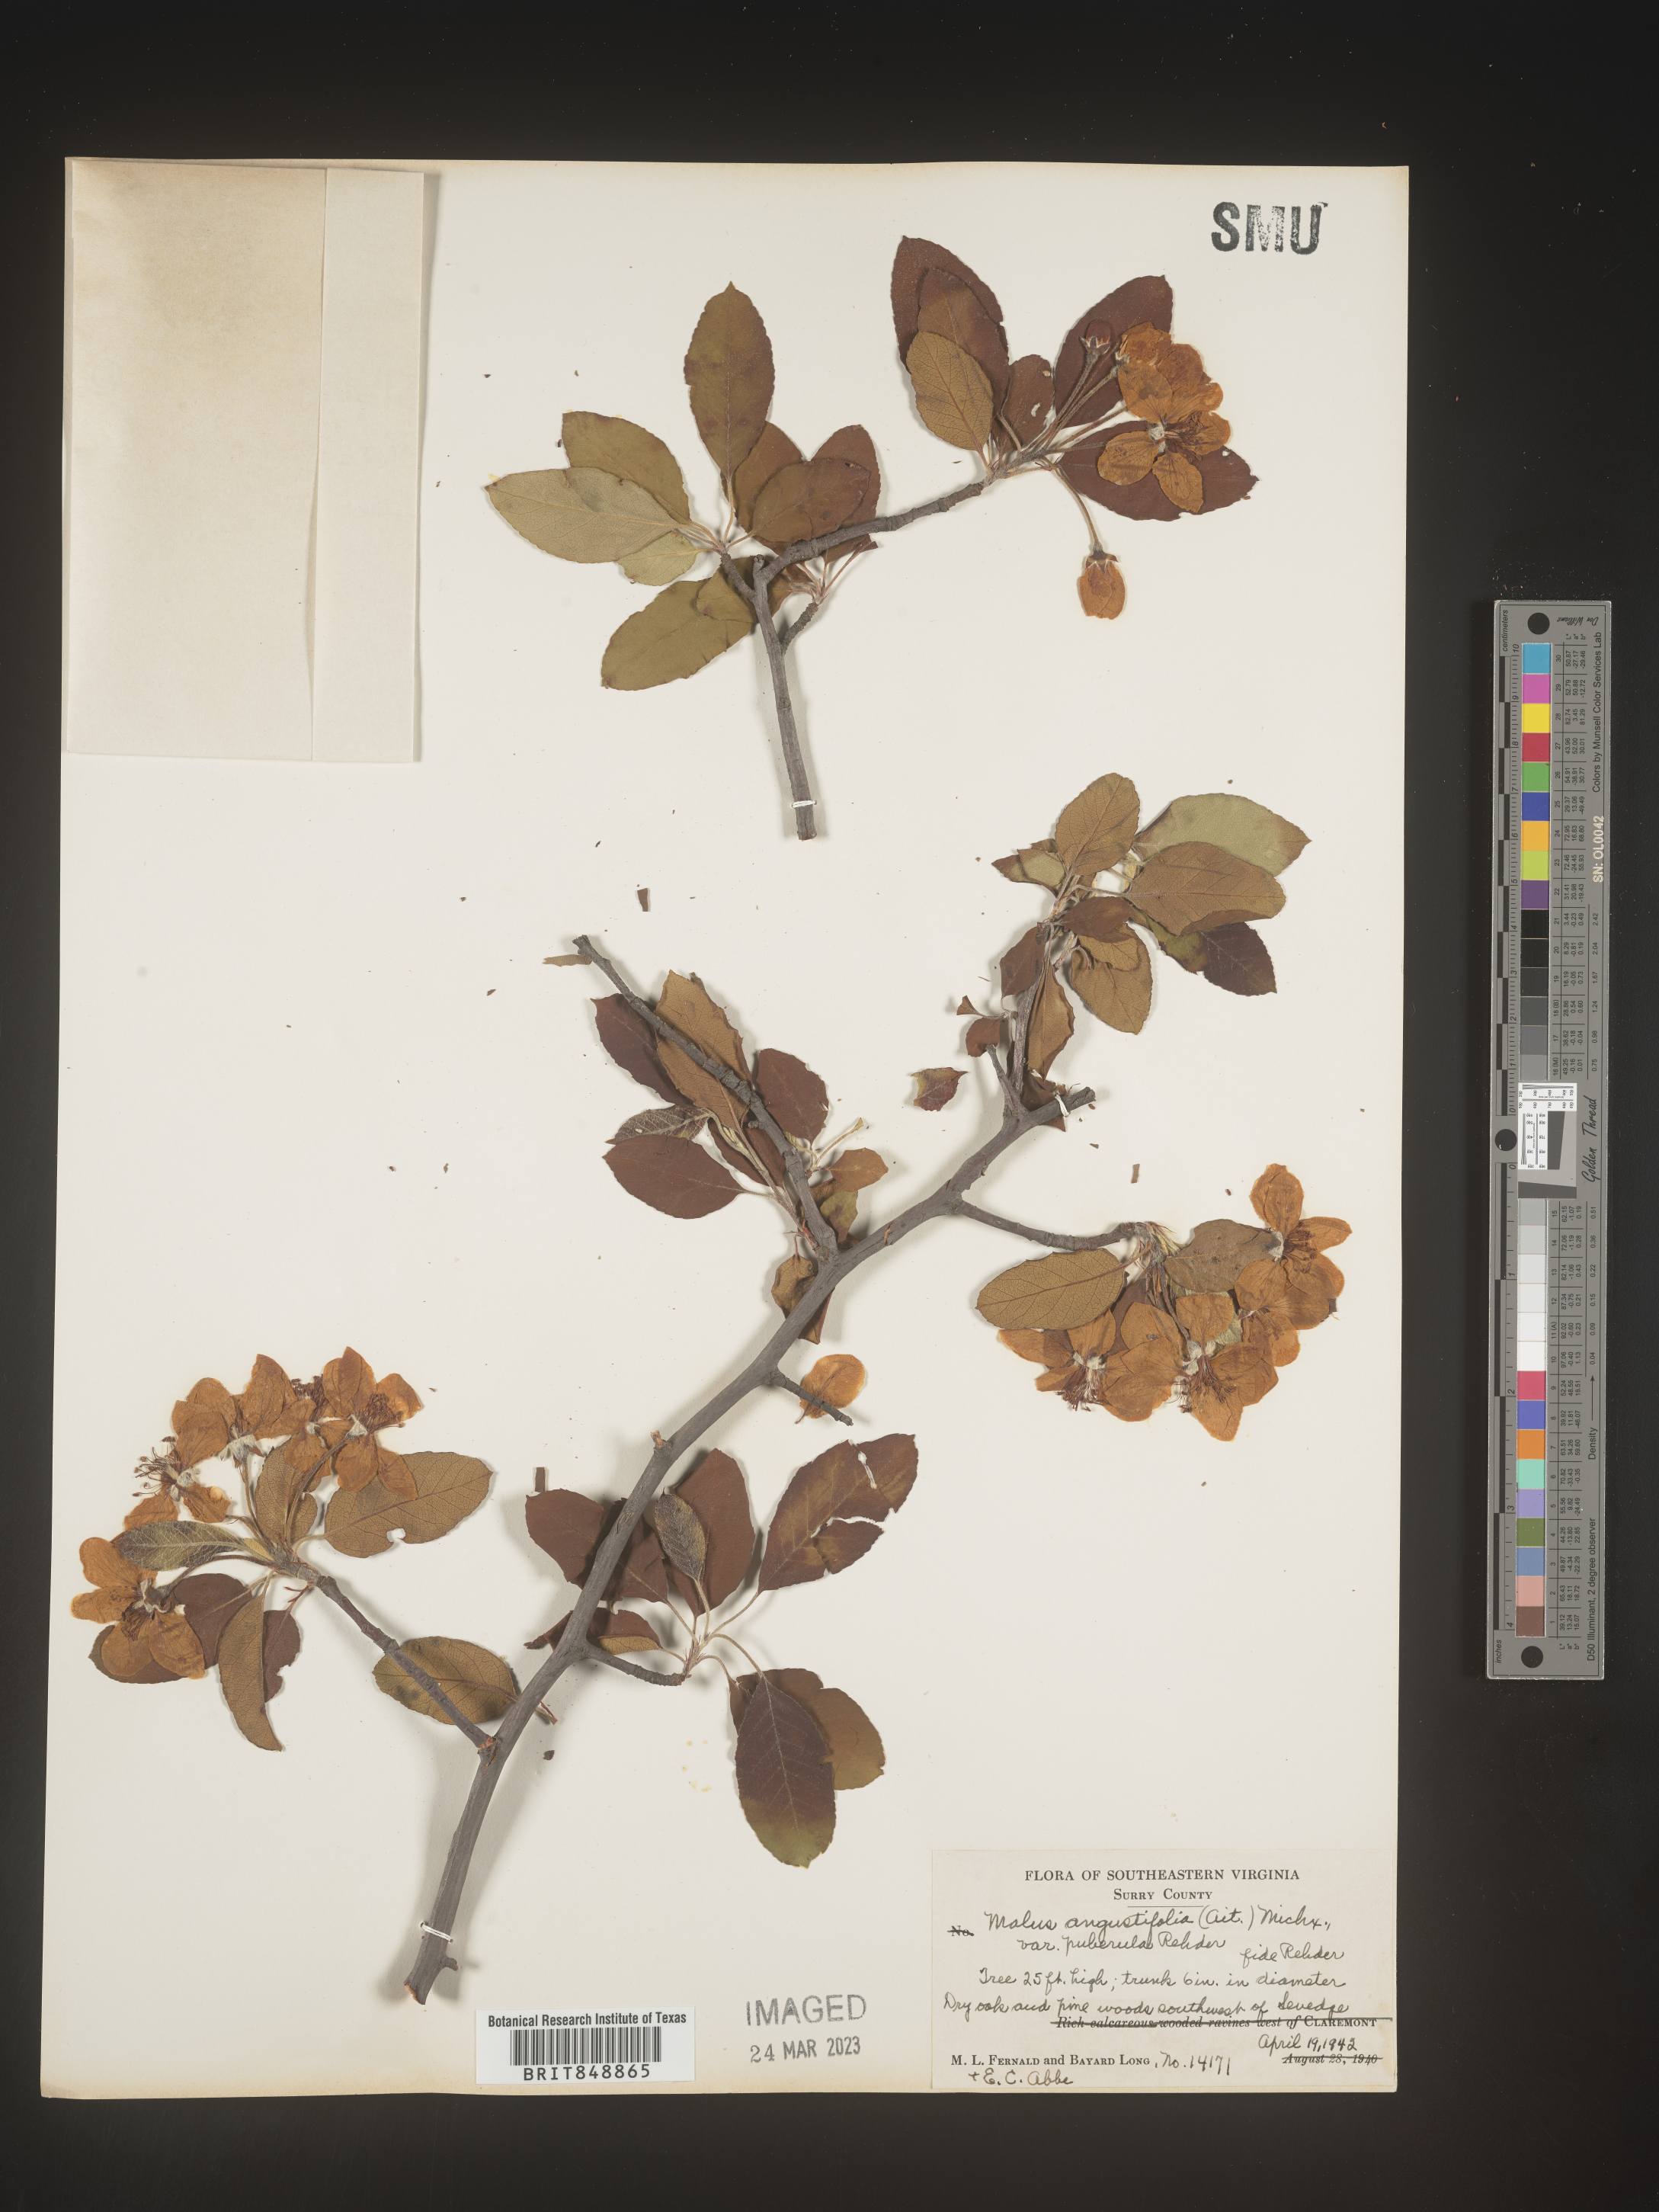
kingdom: Plantae
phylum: Tracheophyta
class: Magnoliopsida
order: Rosales
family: Rosaceae
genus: Malus
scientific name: Malus angustifolia
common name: Southern crab apple
